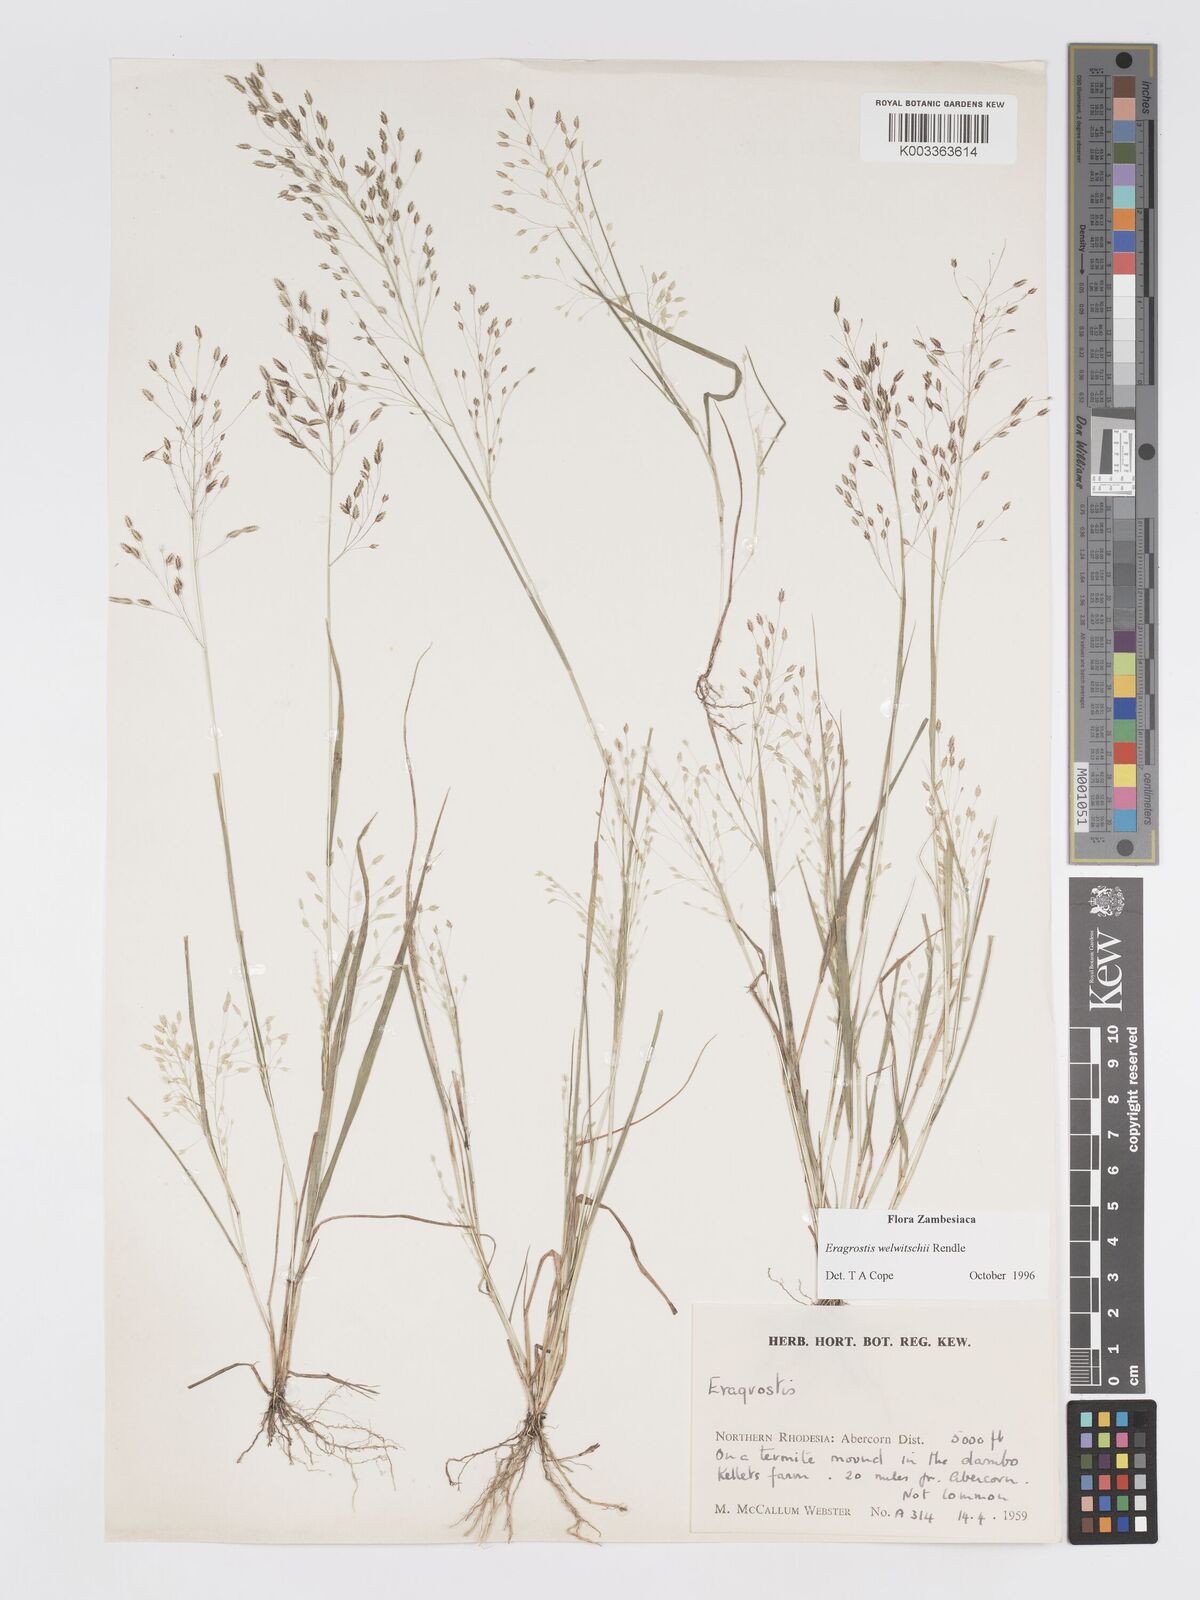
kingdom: Plantae
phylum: Tracheophyta
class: Liliopsida
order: Poales
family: Poaceae
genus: Eragrostis
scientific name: Eragrostis welwitschii
